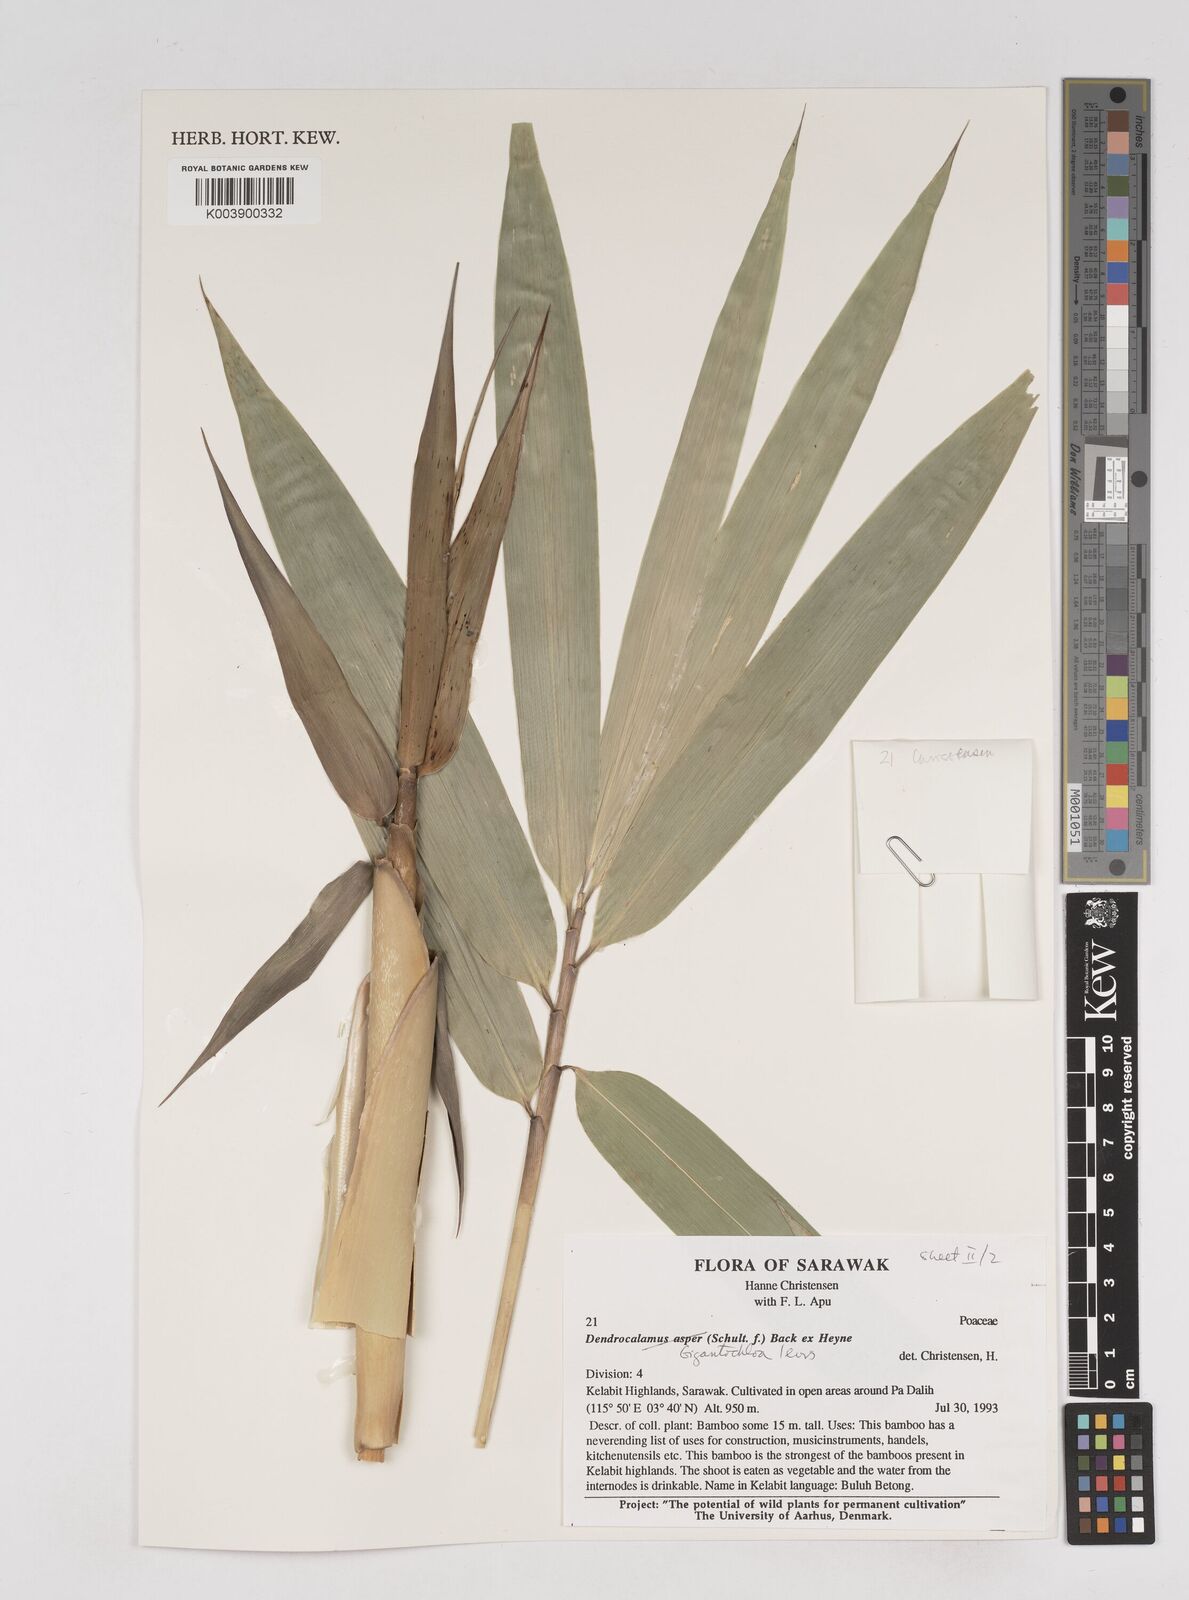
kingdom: Plantae
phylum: Tracheophyta
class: Liliopsida
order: Poales
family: Poaceae
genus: Gigantochloa
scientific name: Gigantochloa levis
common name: Smooth-shoot gigantochloa
